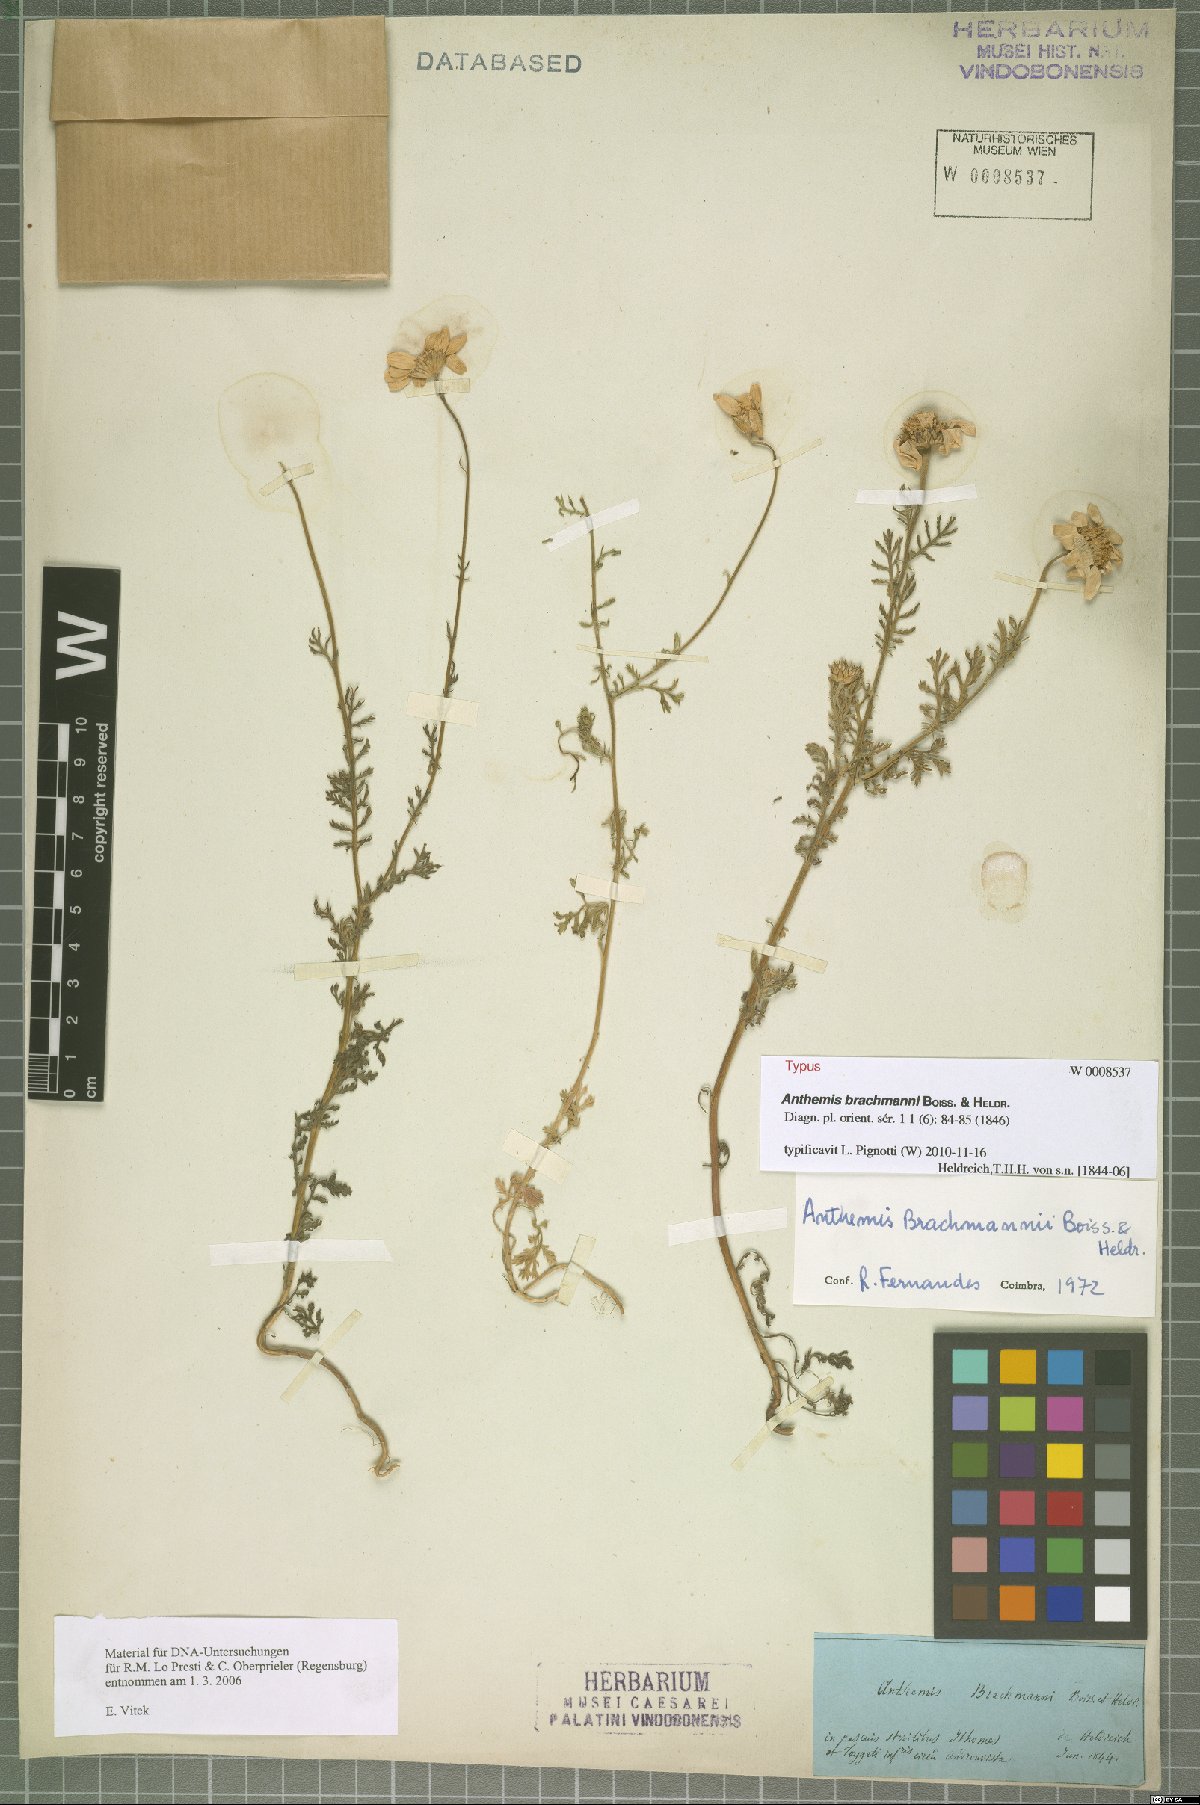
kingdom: Plantae
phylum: Tracheophyta
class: Magnoliopsida
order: Asterales
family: Asteraceae
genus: Cota
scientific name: Cota brachmanni
